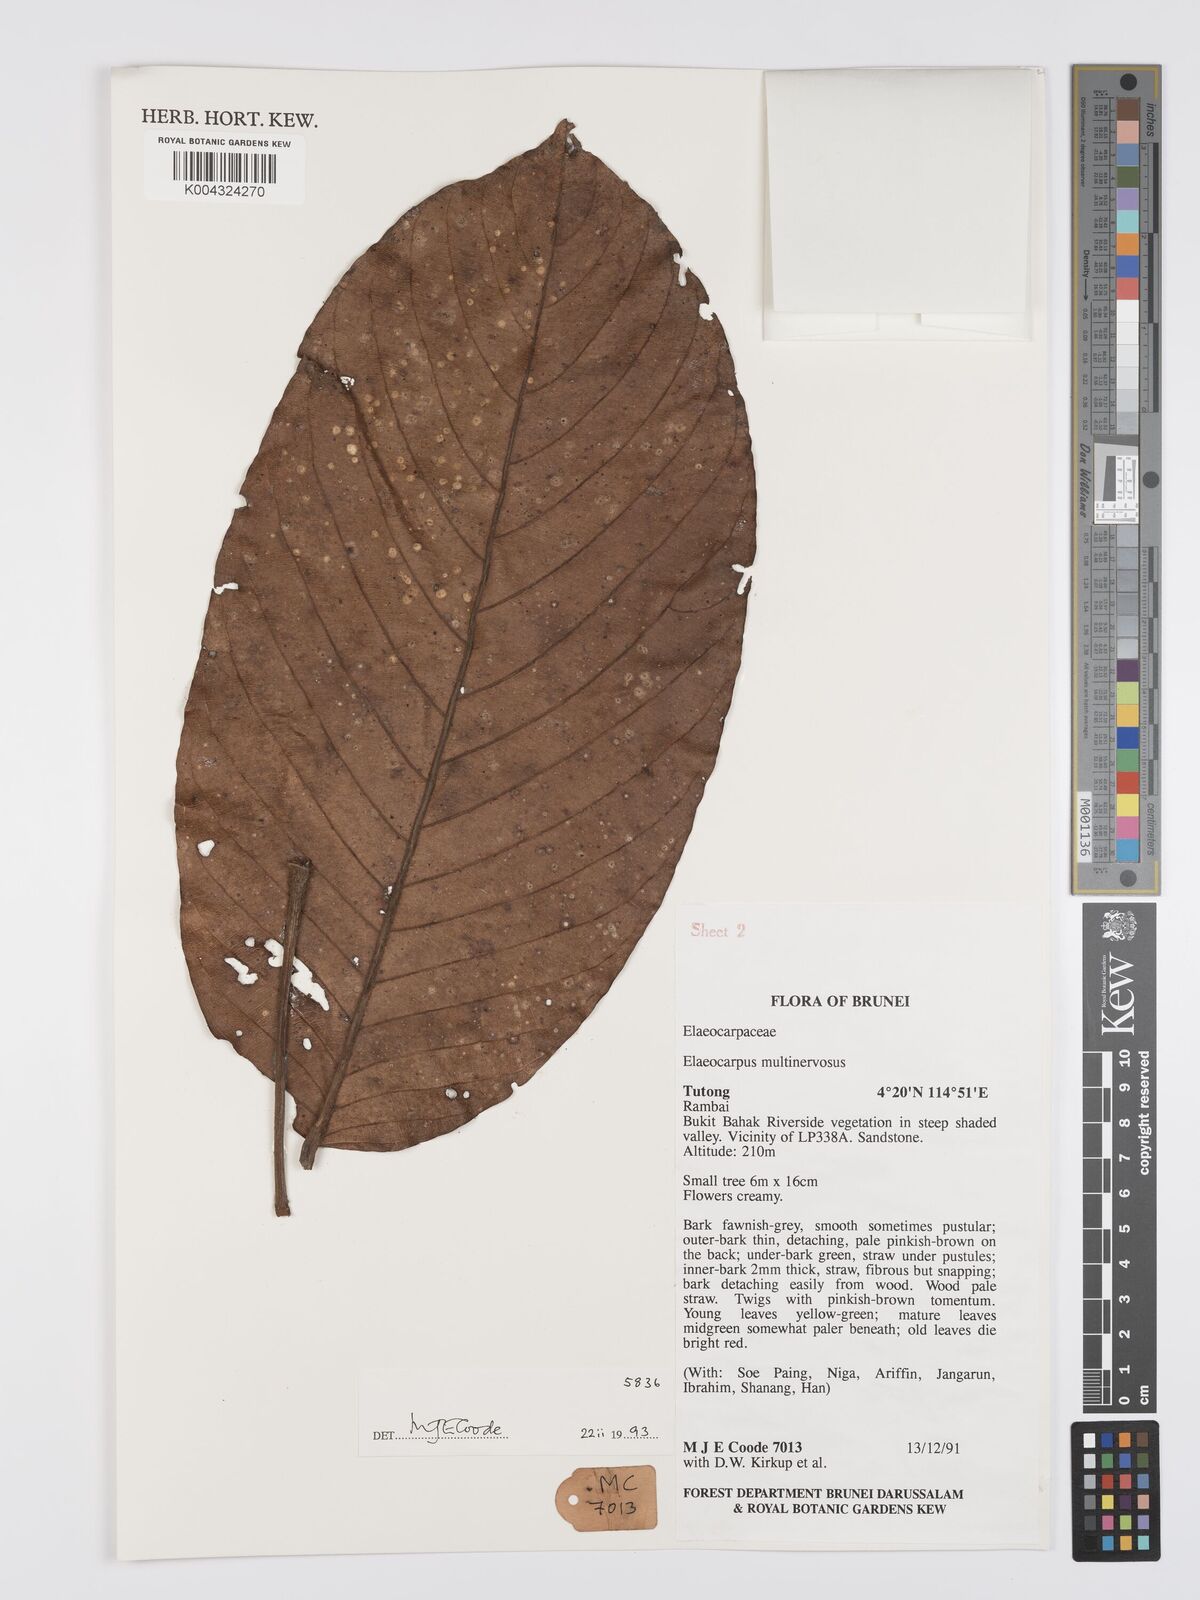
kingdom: Plantae
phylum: Tracheophyta
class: Magnoliopsida
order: Oxalidales
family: Elaeocarpaceae
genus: Elaeocarpus
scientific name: Elaeocarpus multinervosus
